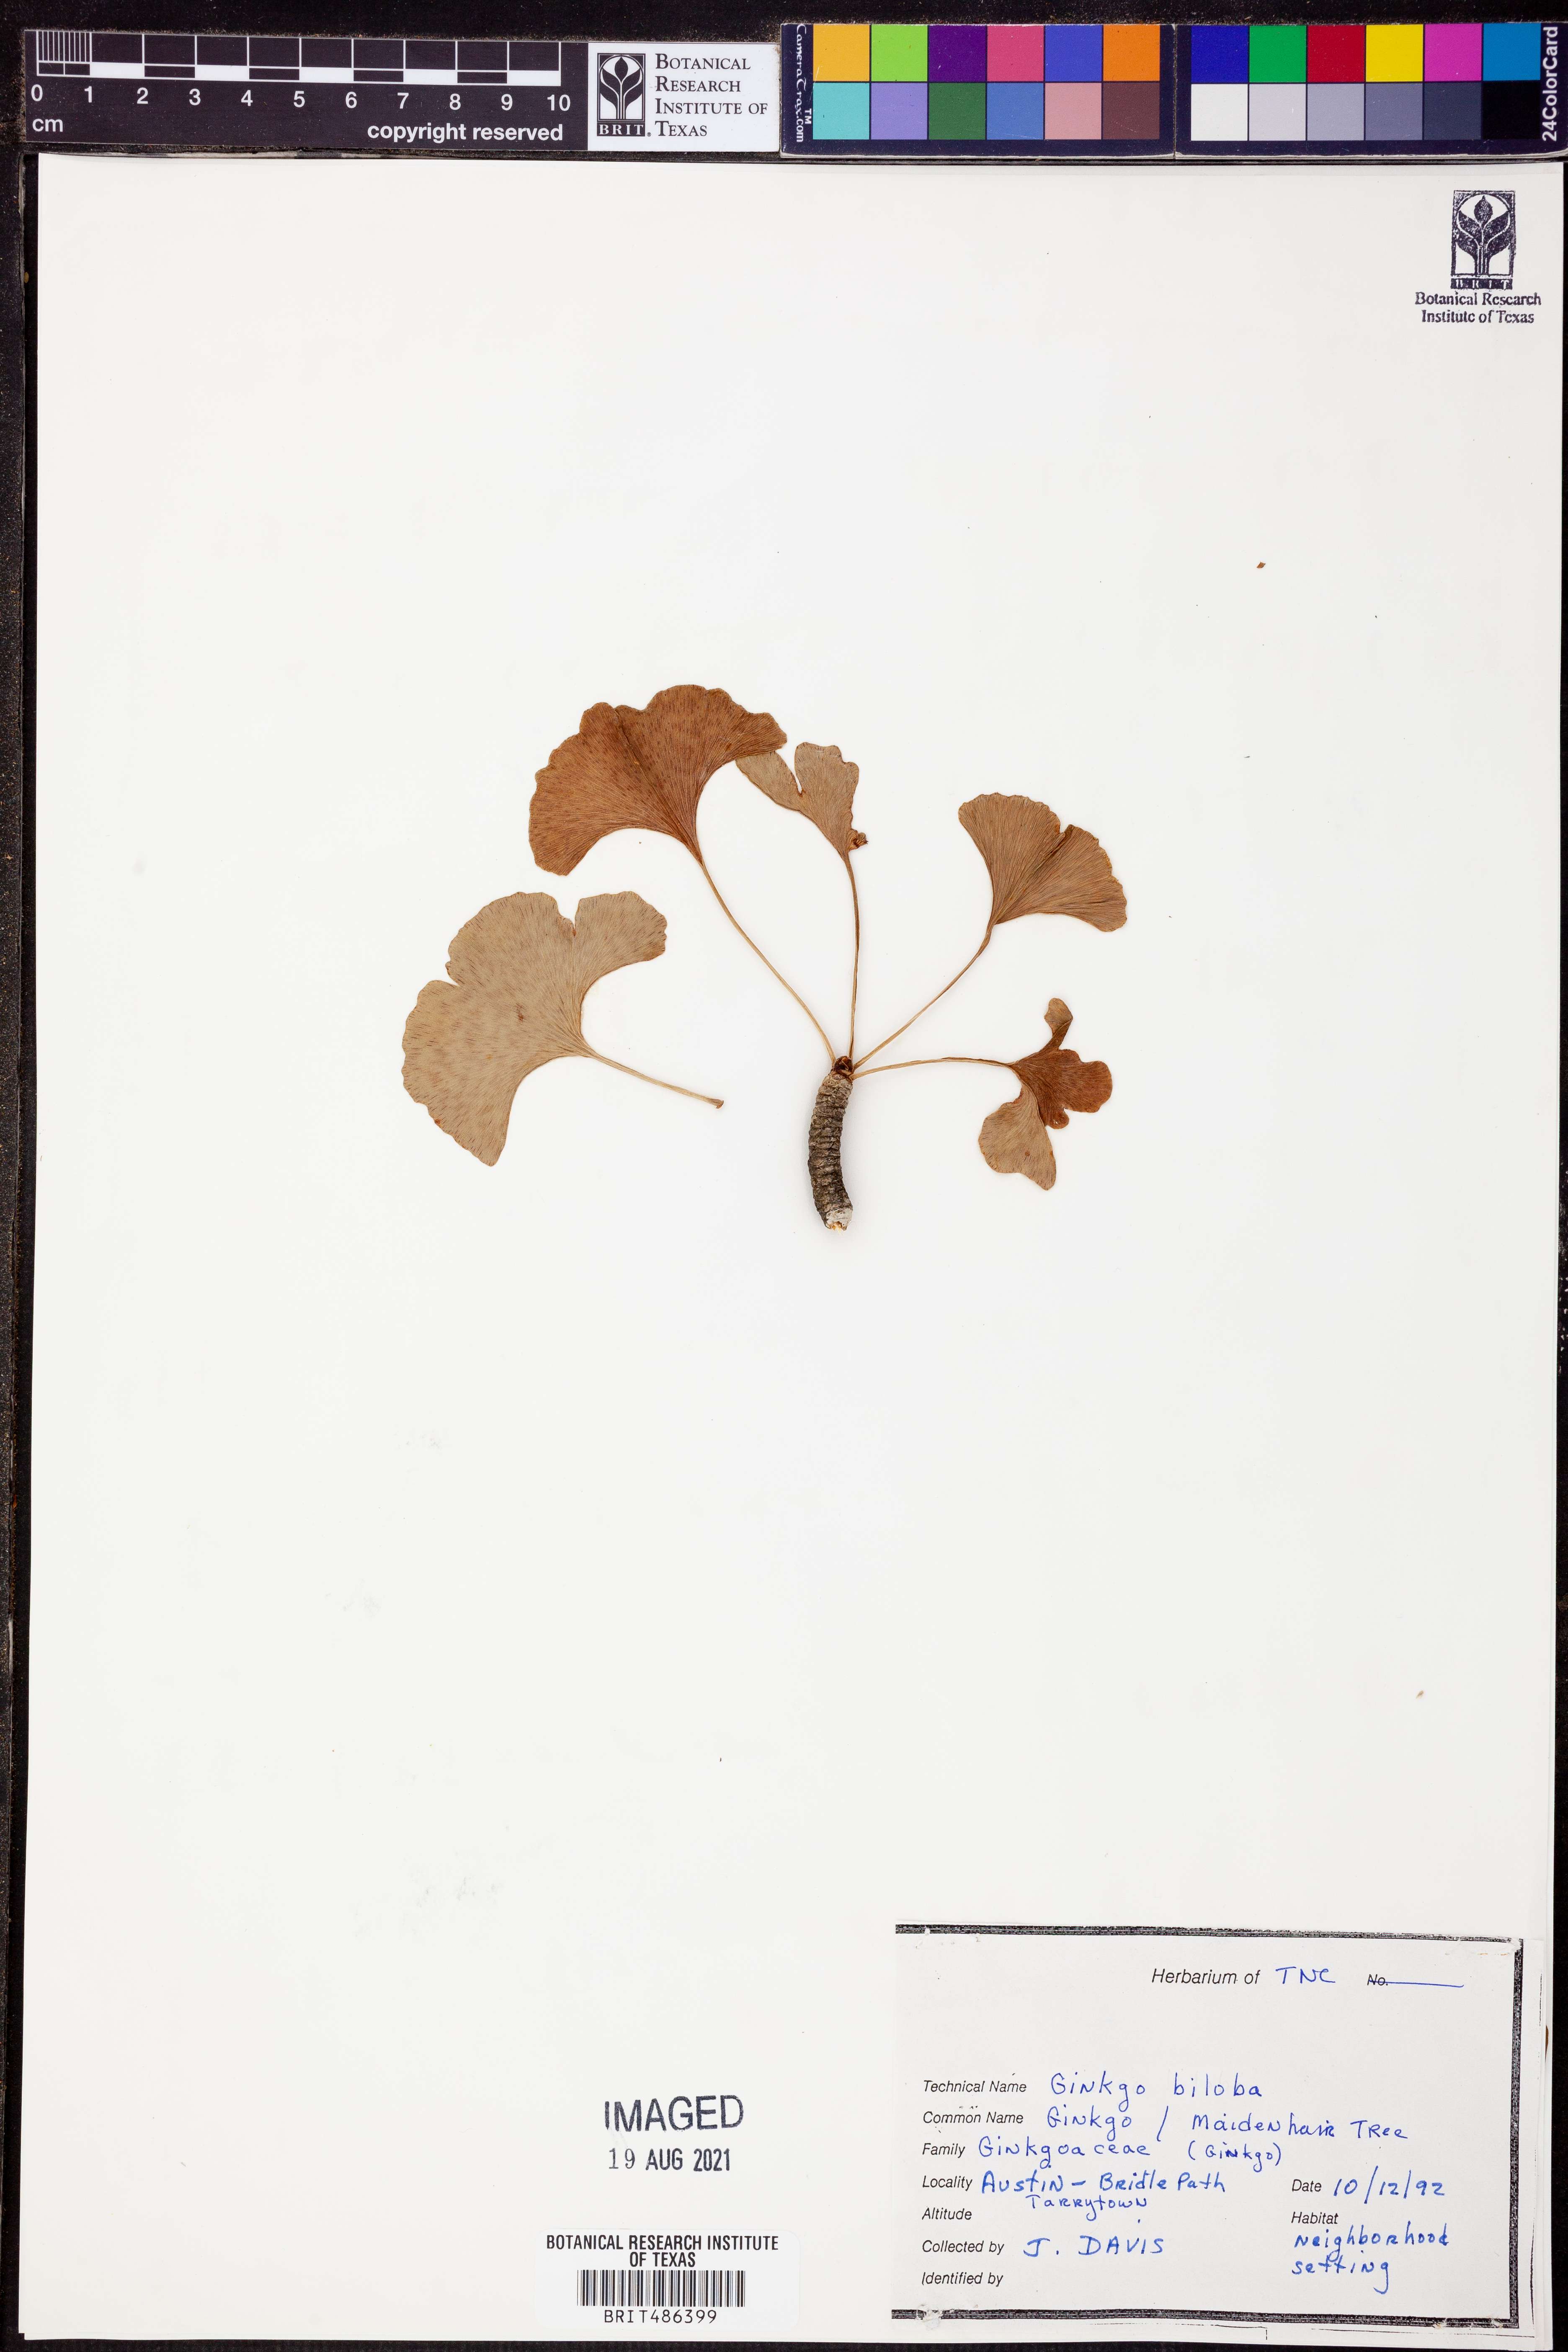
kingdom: Plantae
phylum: Tracheophyta
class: Ginkgoopsida
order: Ginkgoales
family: Ginkgoaceae
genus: Ginkgo
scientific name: Ginkgo biloba
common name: Ginkgo
